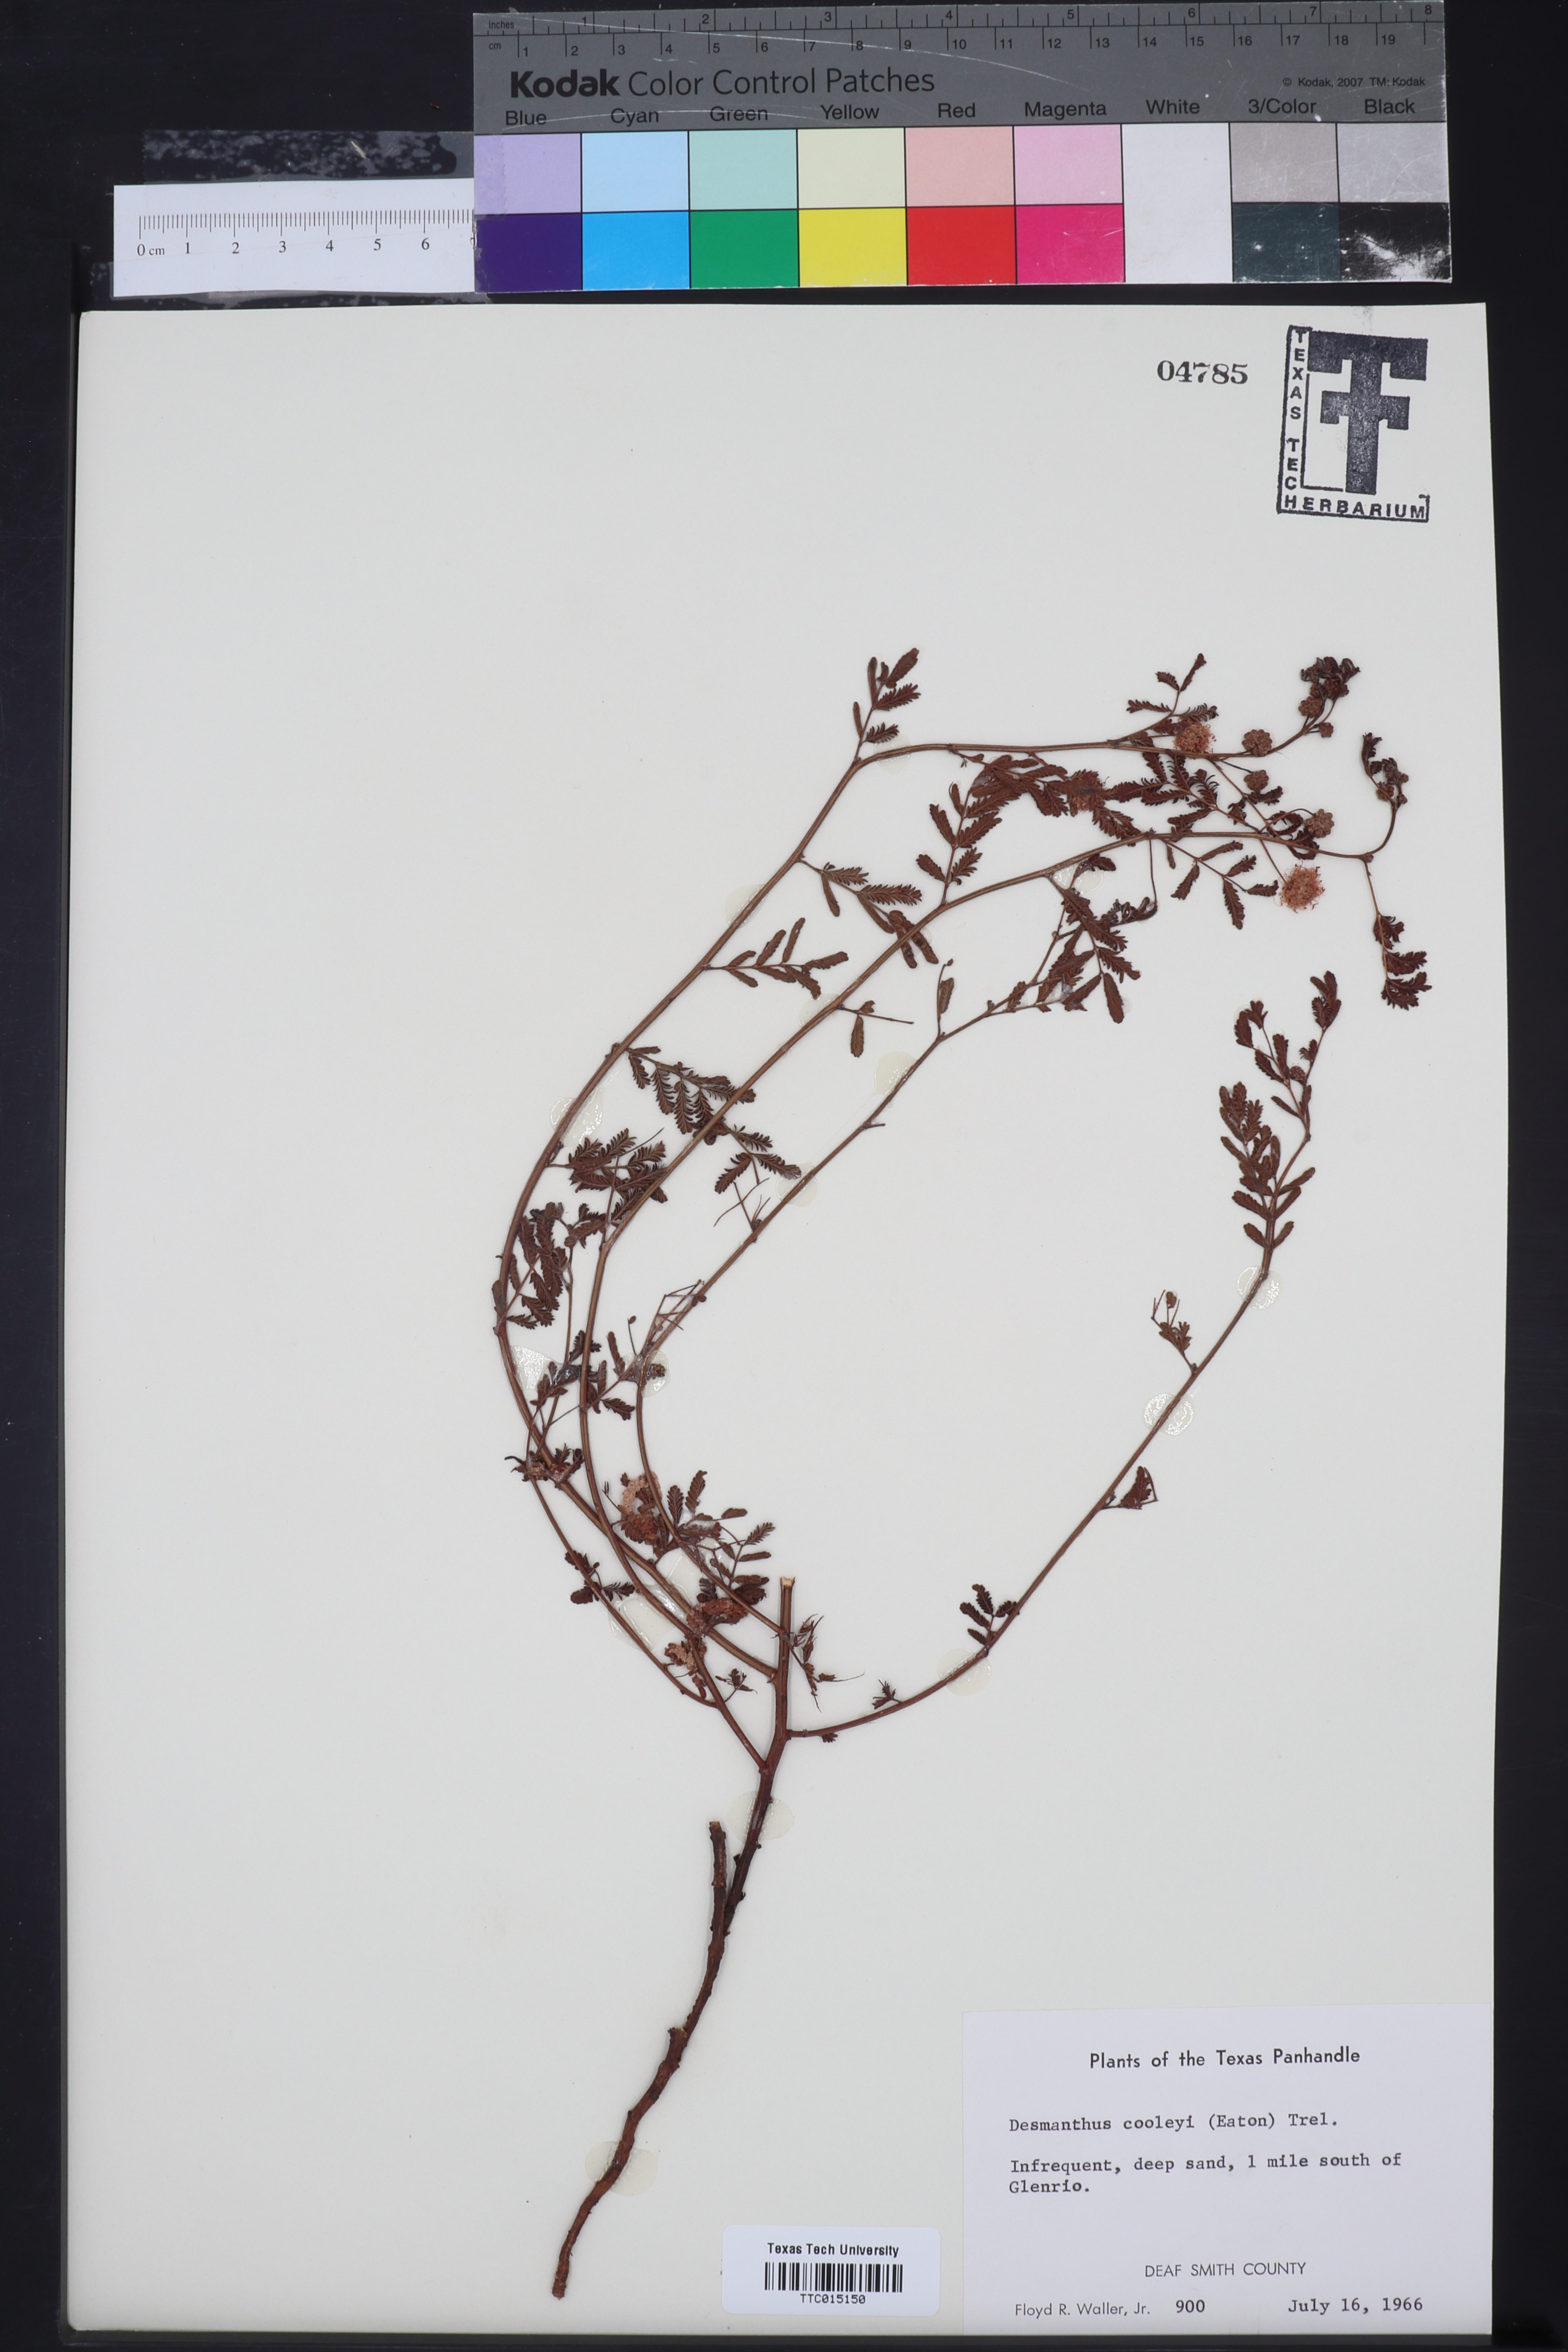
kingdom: Plantae
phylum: Tracheophyta
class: Magnoliopsida
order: Fabales
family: Fabaceae
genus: Desmanthus
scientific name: Desmanthus cooleyi
